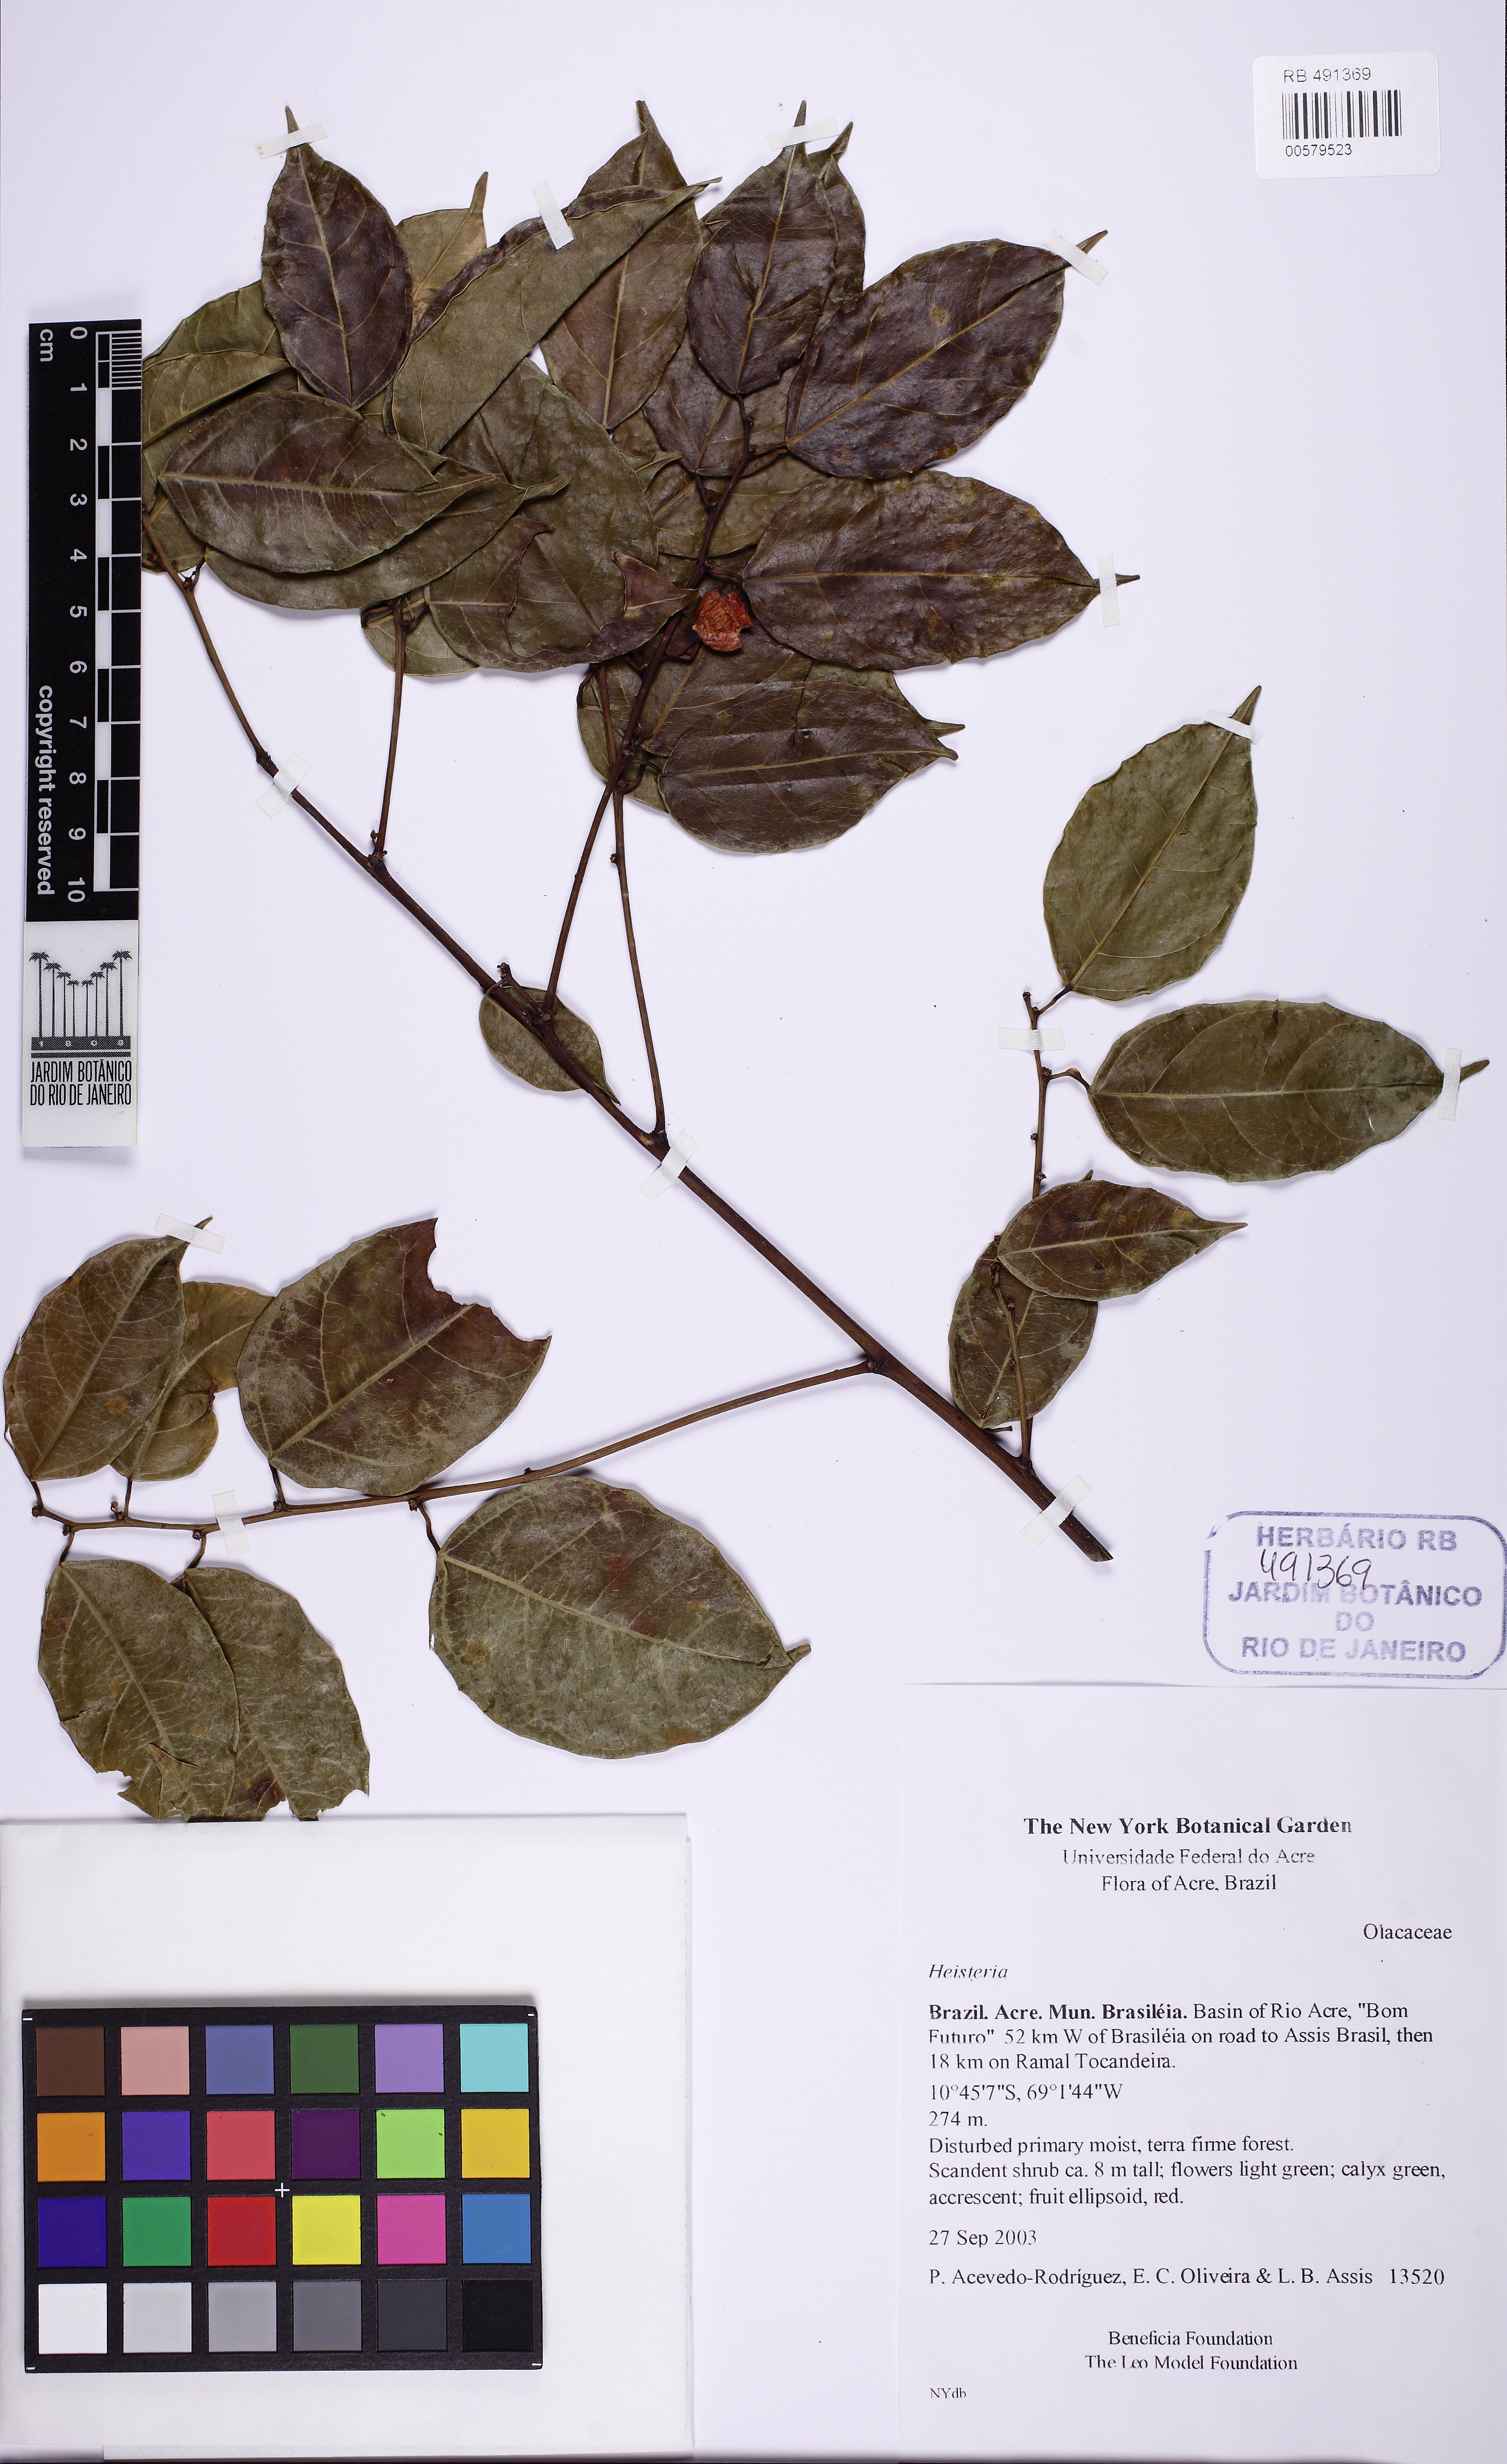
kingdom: Plantae
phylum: Tracheophyta
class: Magnoliopsida
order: Santalales
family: Erythropalaceae
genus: Heisteria
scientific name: Heisteria scandens
